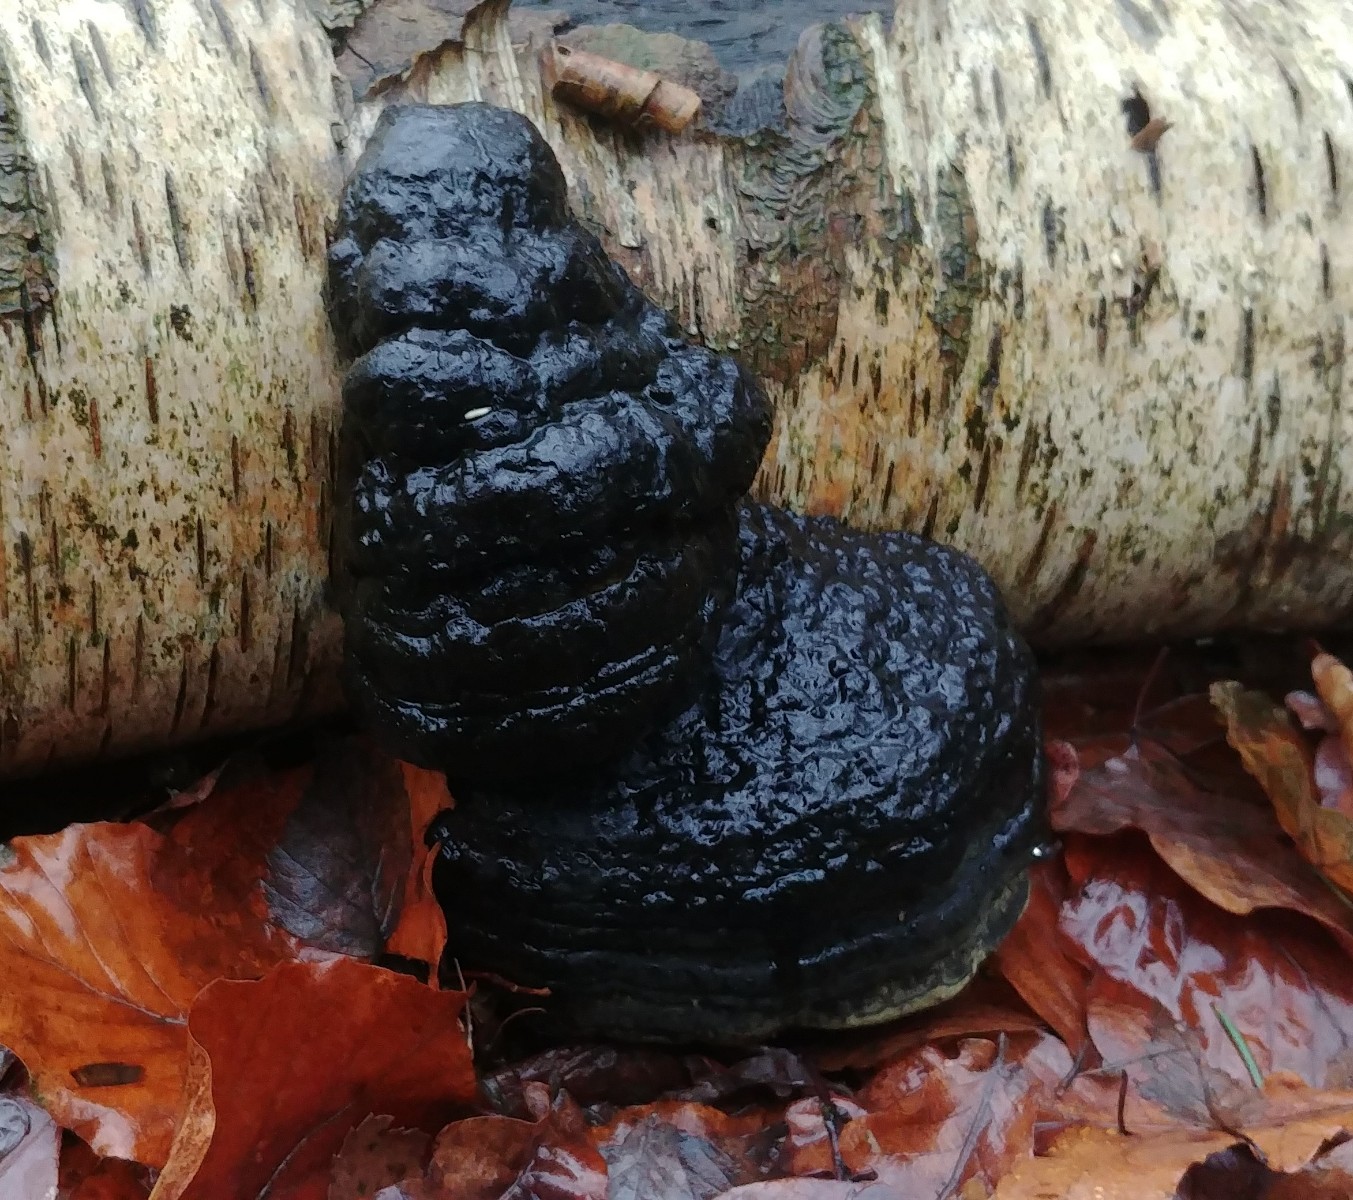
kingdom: Fungi
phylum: Basidiomycota
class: Agaricomycetes
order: Polyporales
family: Polyporaceae
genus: Fomes
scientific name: Fomes fomentarius
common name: tøndersvamp
